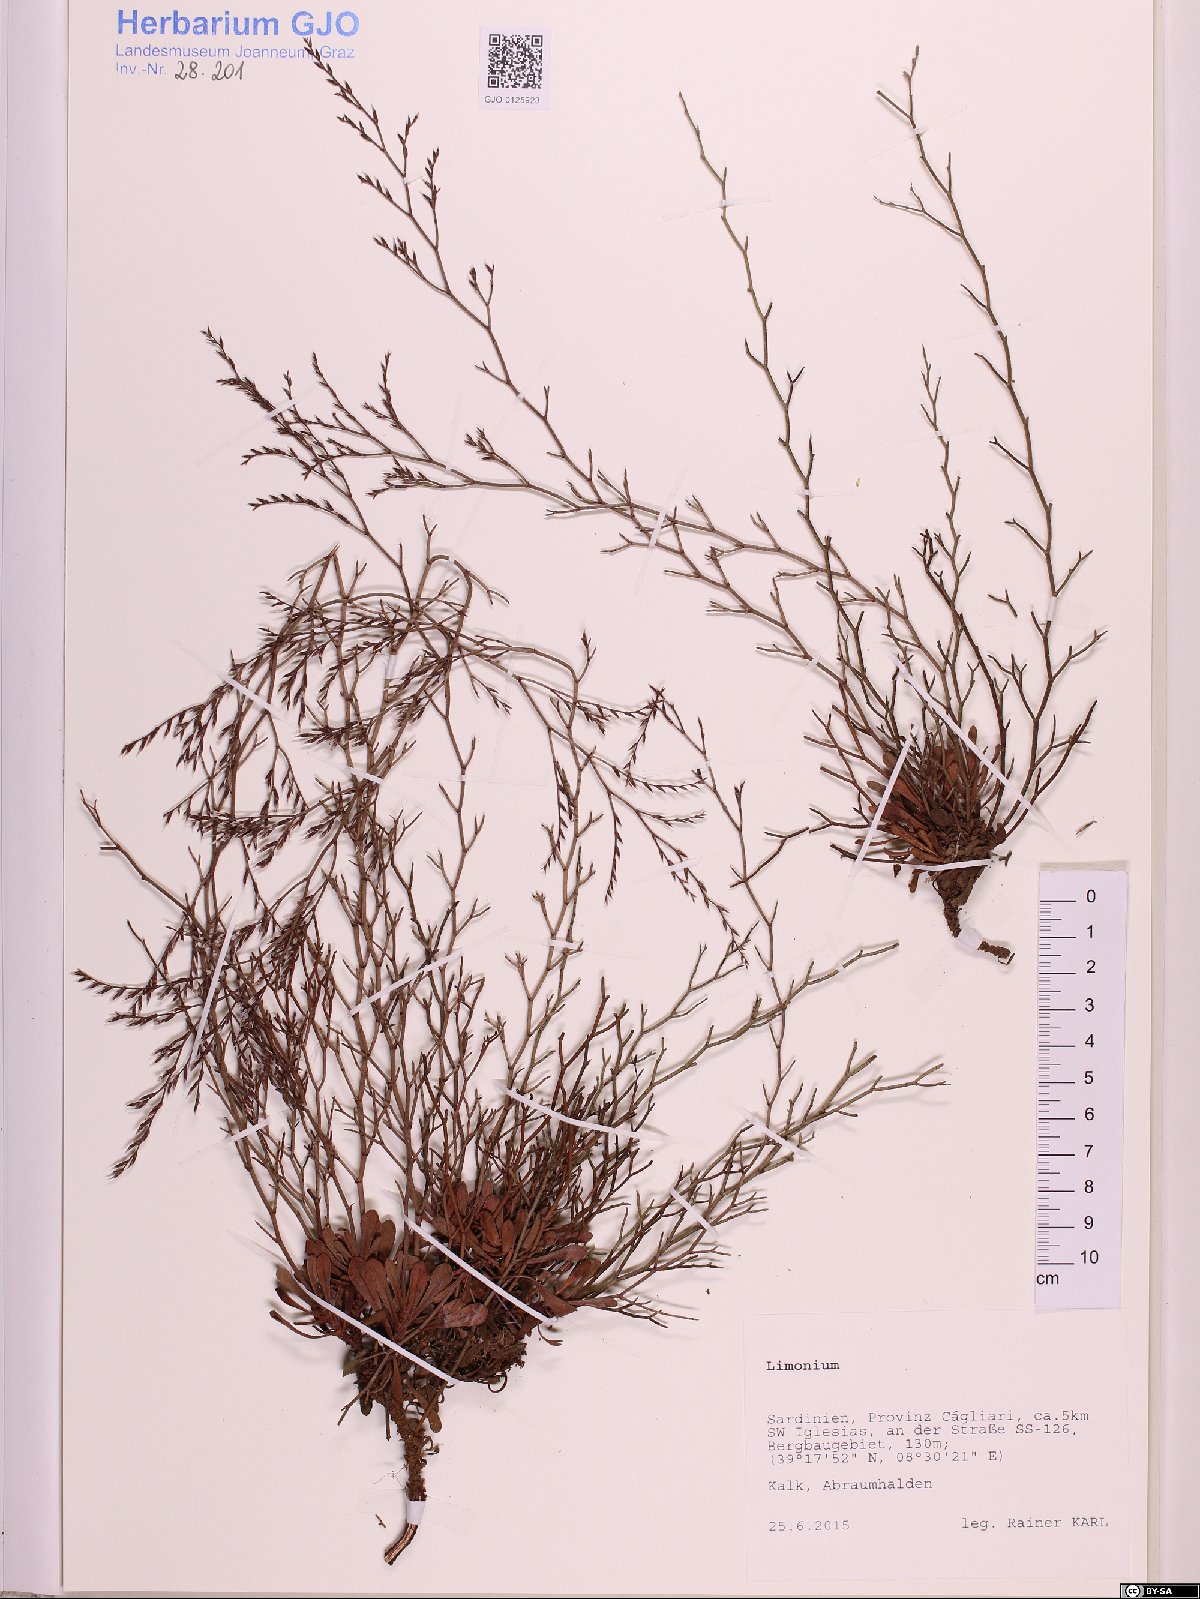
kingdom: Plantae
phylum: Tracheophyta
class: Magnoliopsida
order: Caryophyllales
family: Plumbaginaceae
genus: Limonium
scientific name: Limonium
